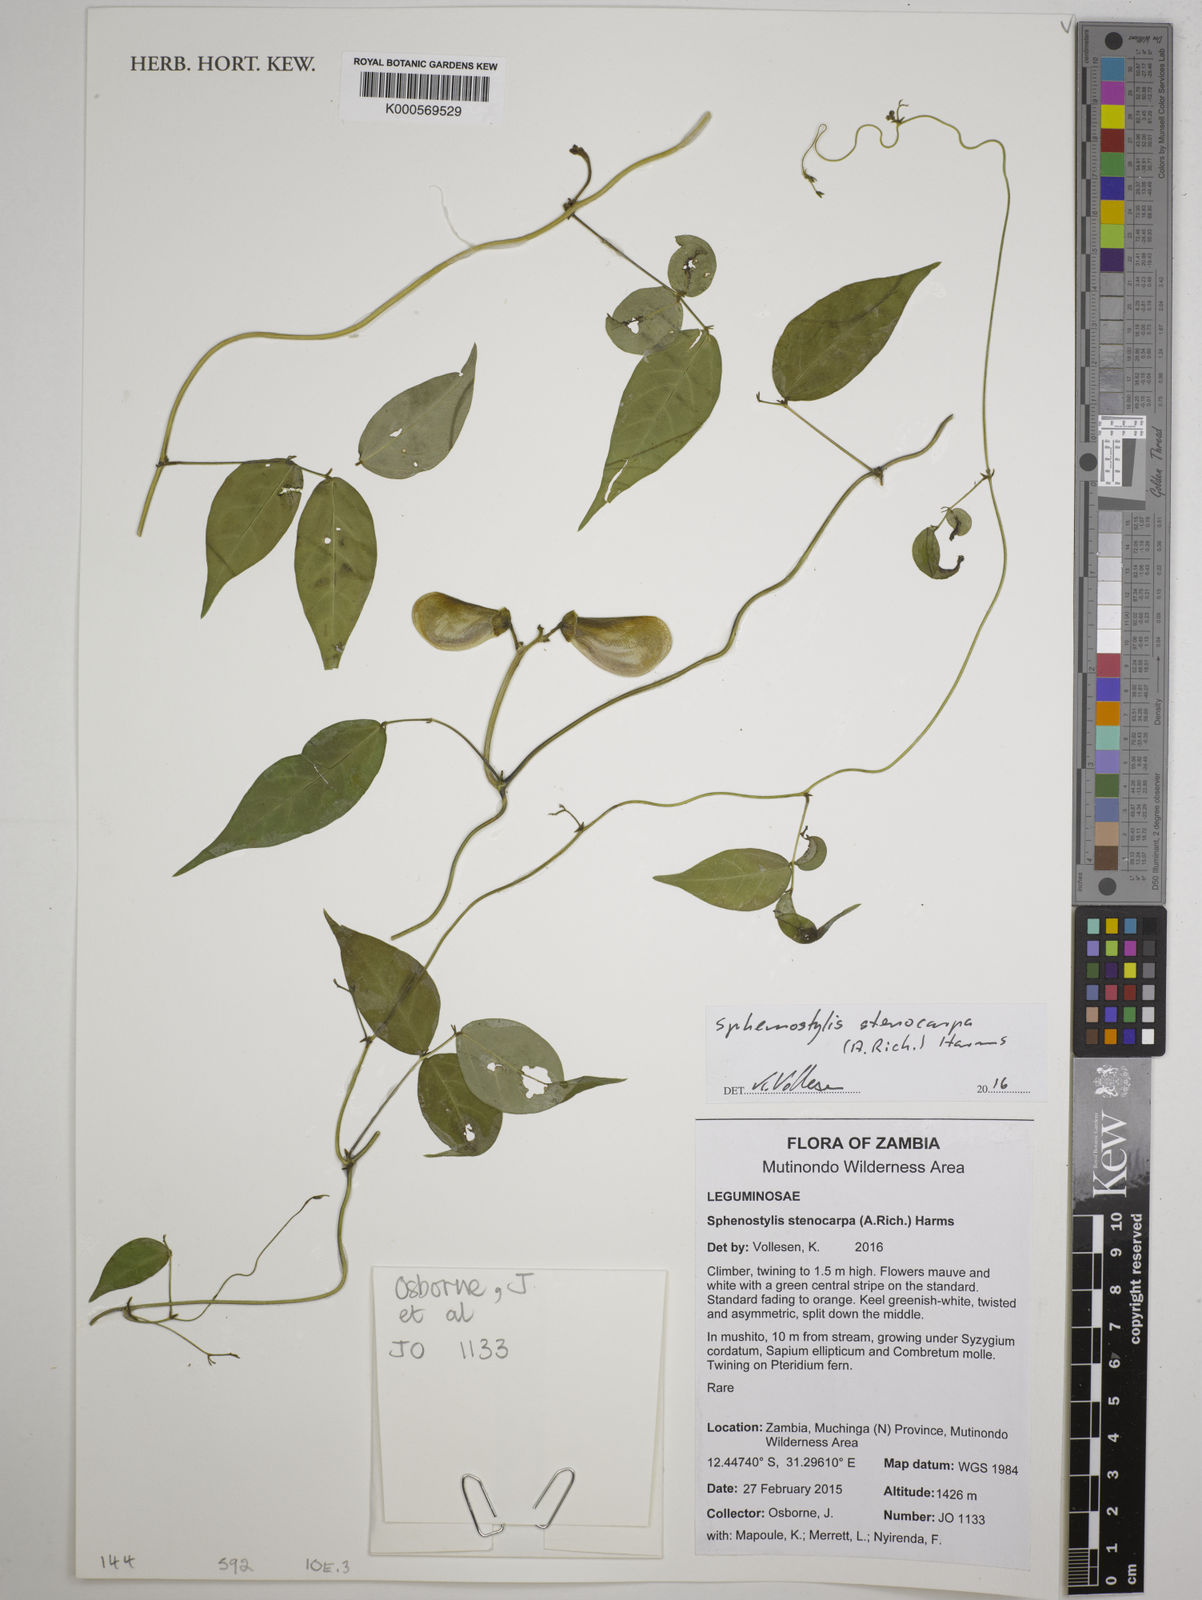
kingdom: Plantae
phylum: Tracheophyta
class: Magnoliopsida
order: Fabales
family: Fabaceae
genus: Sphenostylis
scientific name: Sphenostylis stenocarpa
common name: Yam-pea
